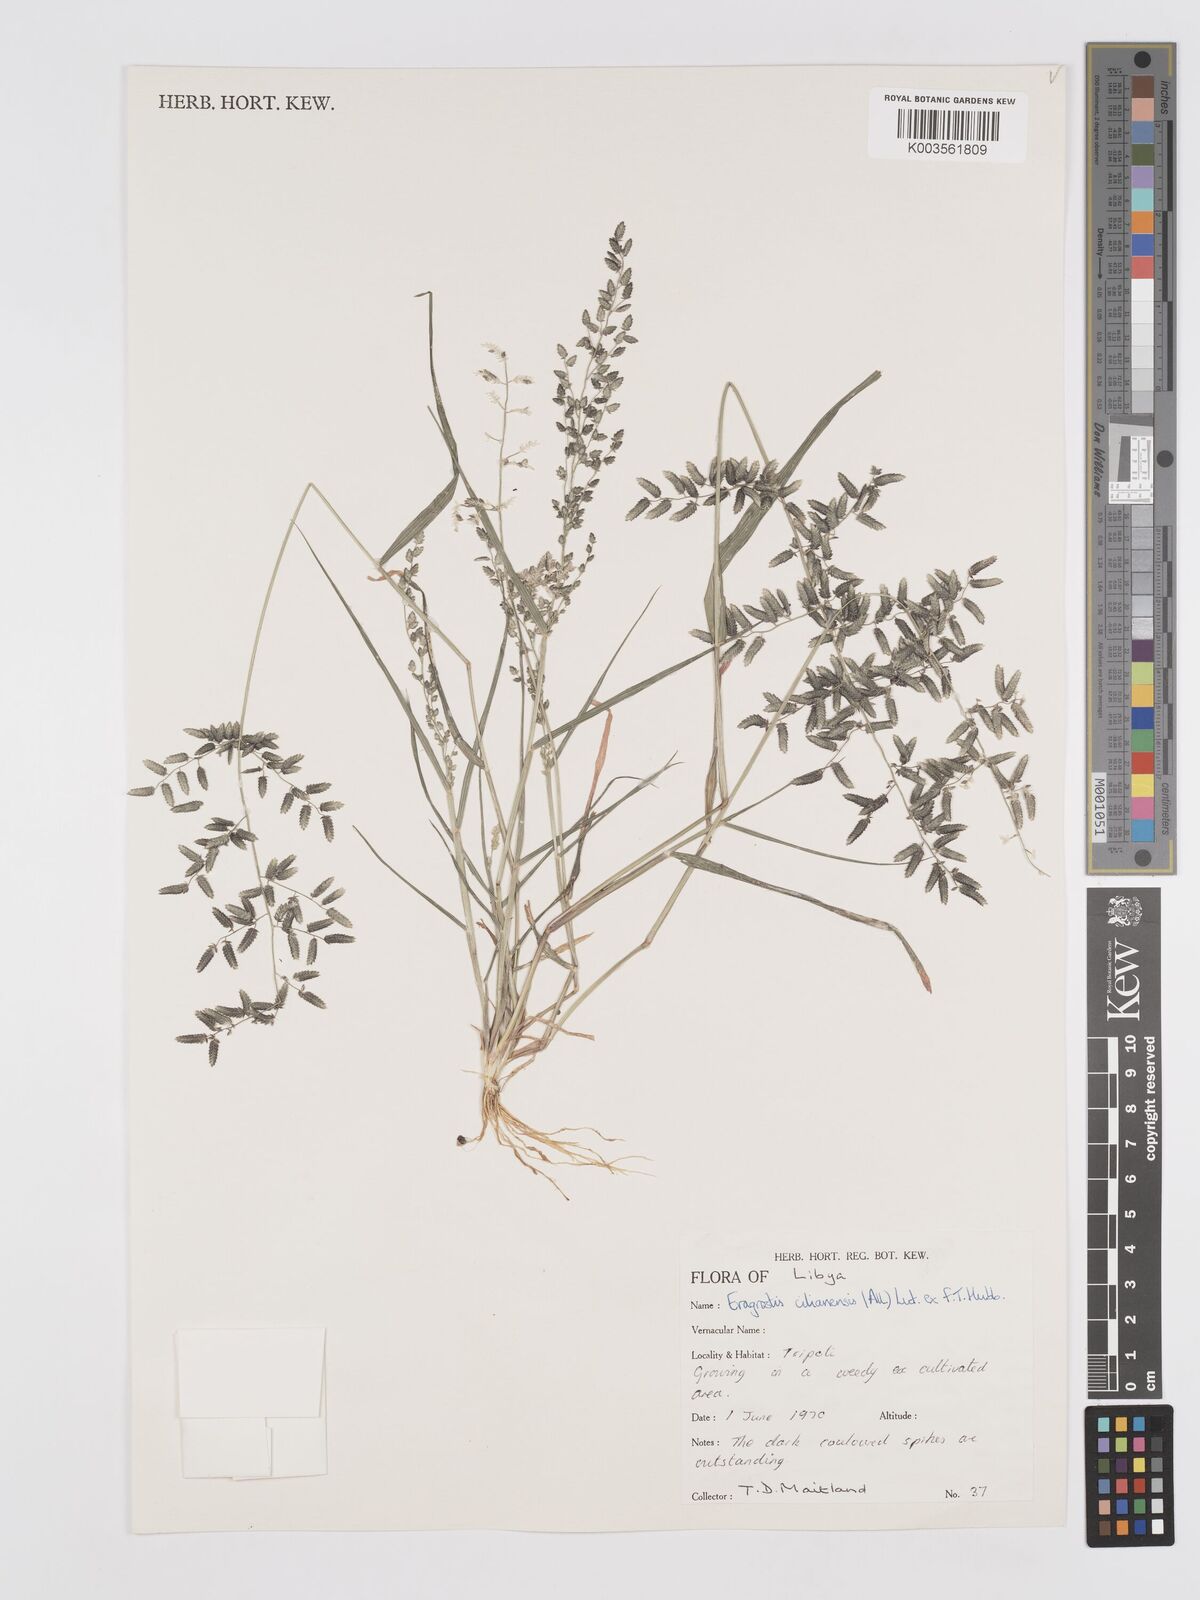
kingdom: Plantae
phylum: Tracheophyta
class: Liliopsida
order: Poales
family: Poaceae
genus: Eragrostis
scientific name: Eragrostis cilianensis
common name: Stinkgrass
